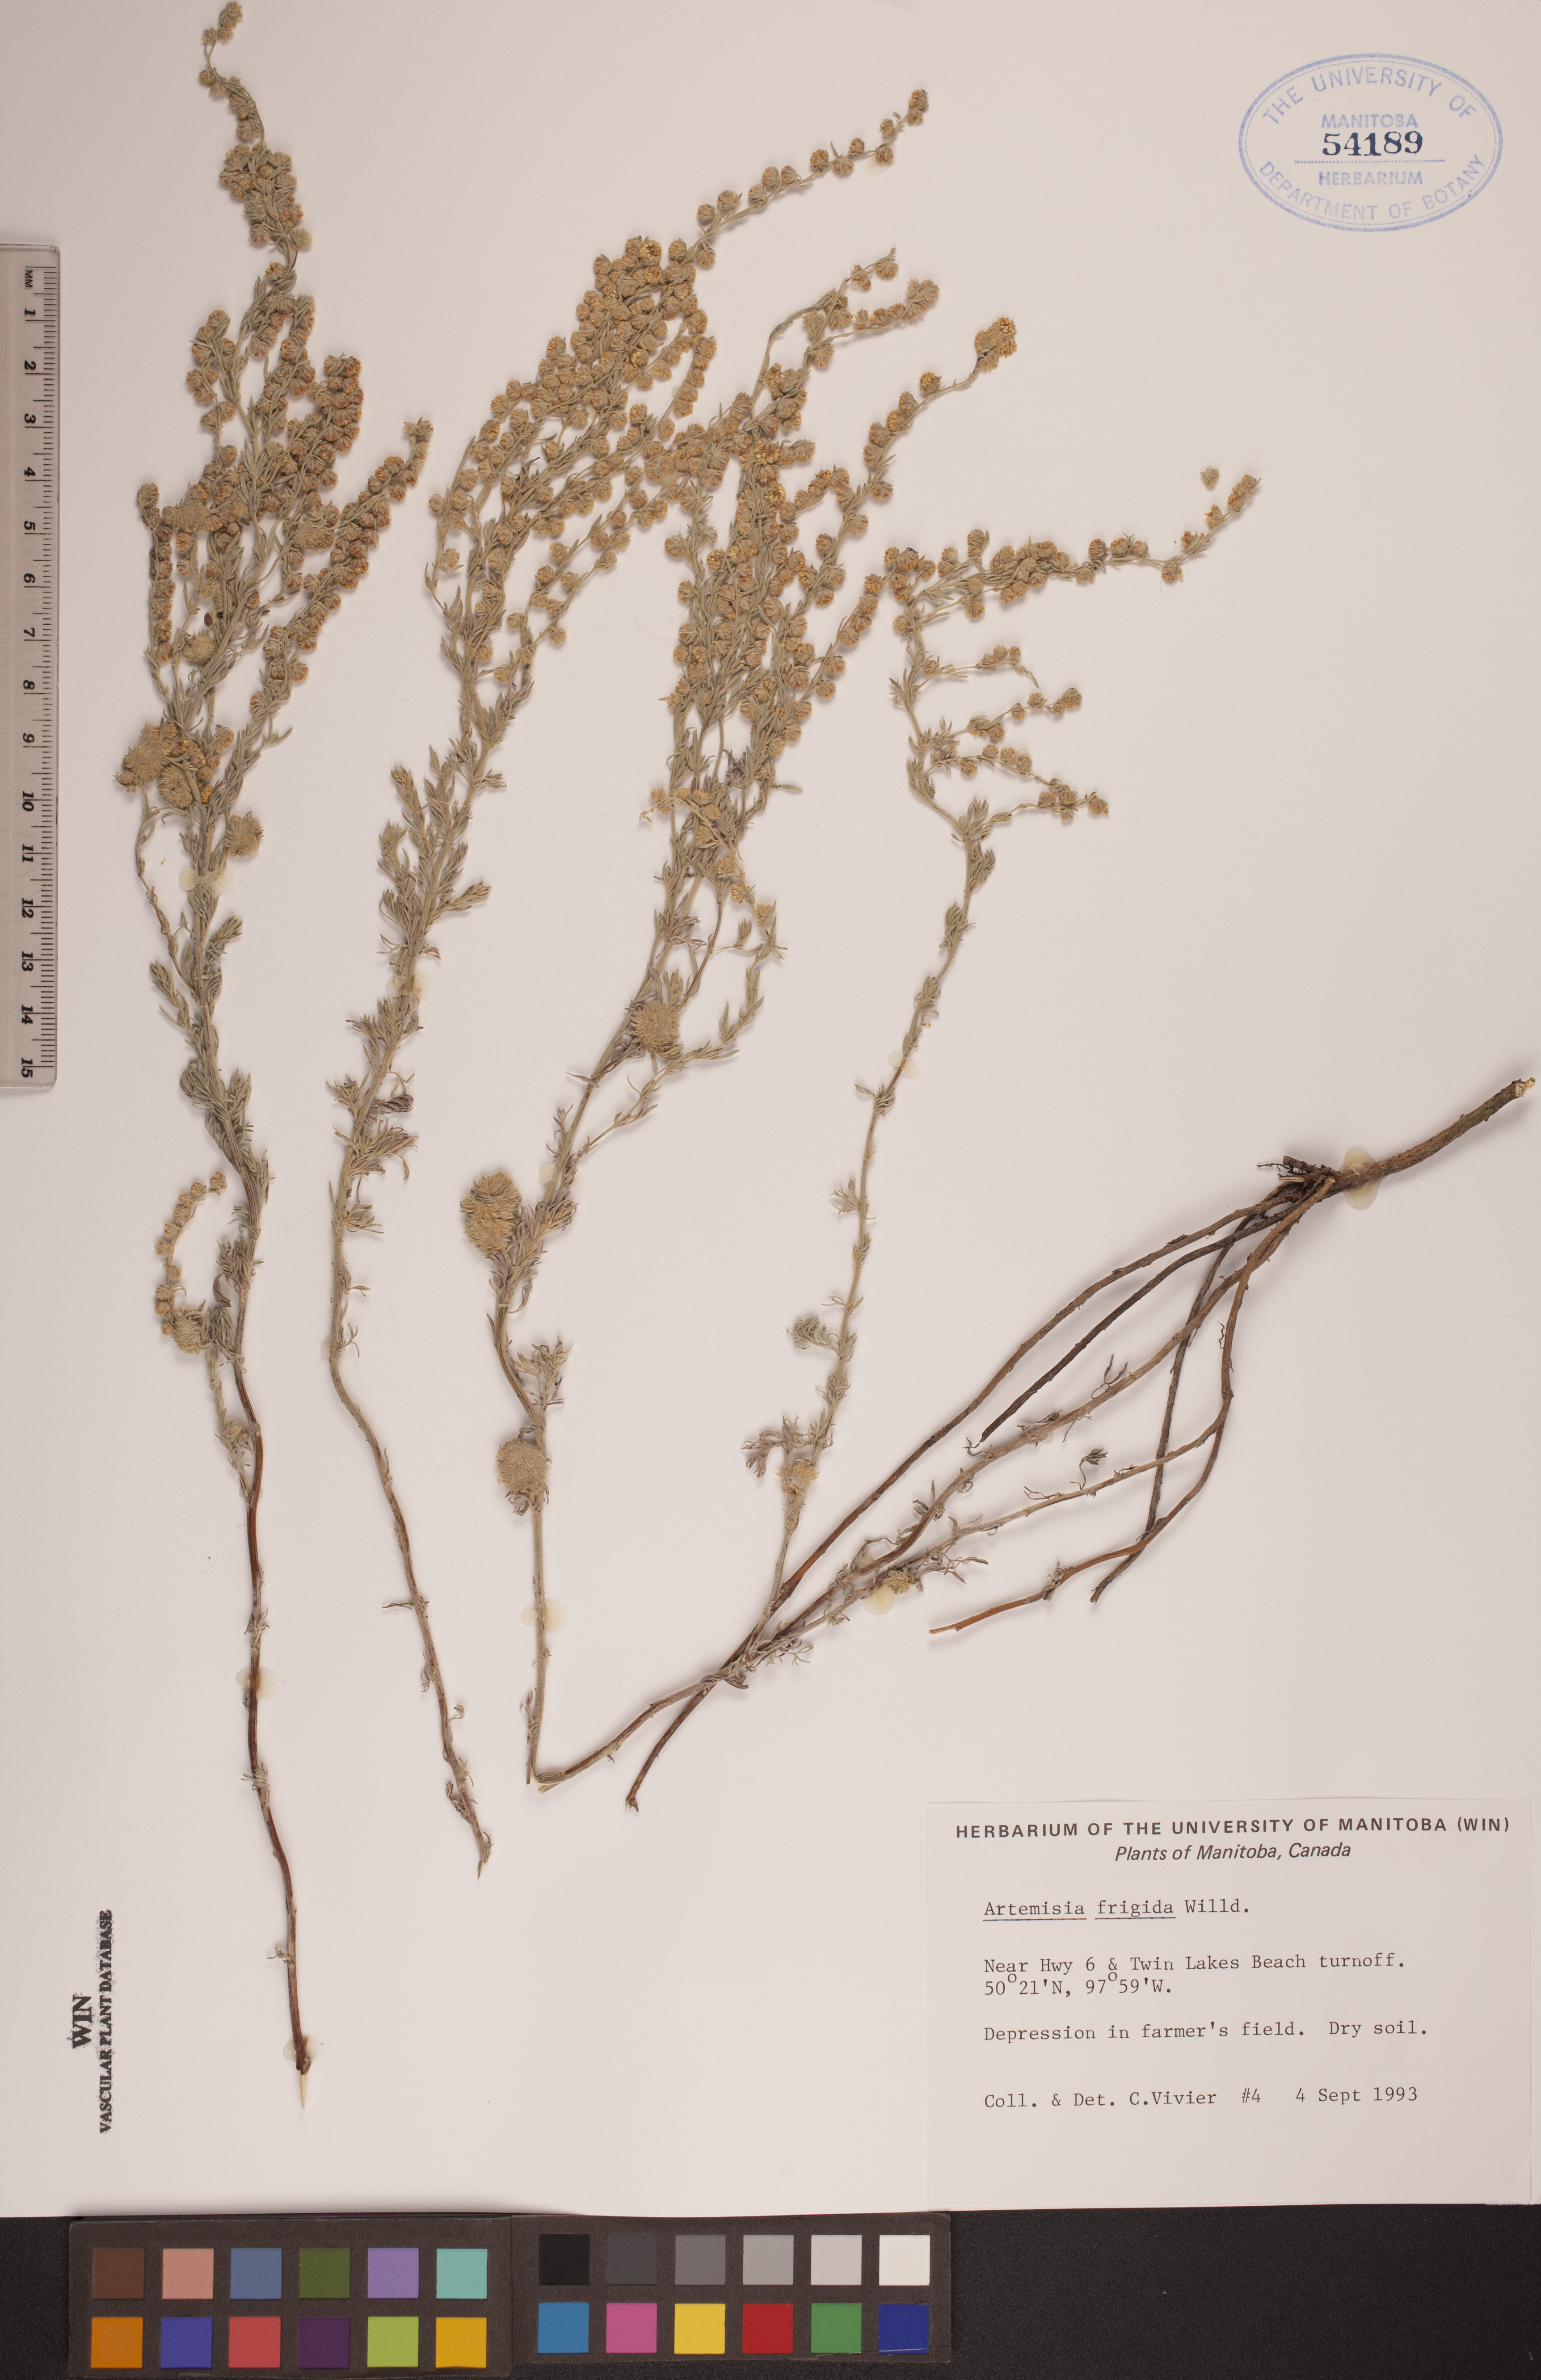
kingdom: Plantae
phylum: Tracheophyta
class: Magnoliopsida
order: Asterales
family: Asteraceae
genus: Artemisia
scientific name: Artemisia frigida
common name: Prairie sagewort
